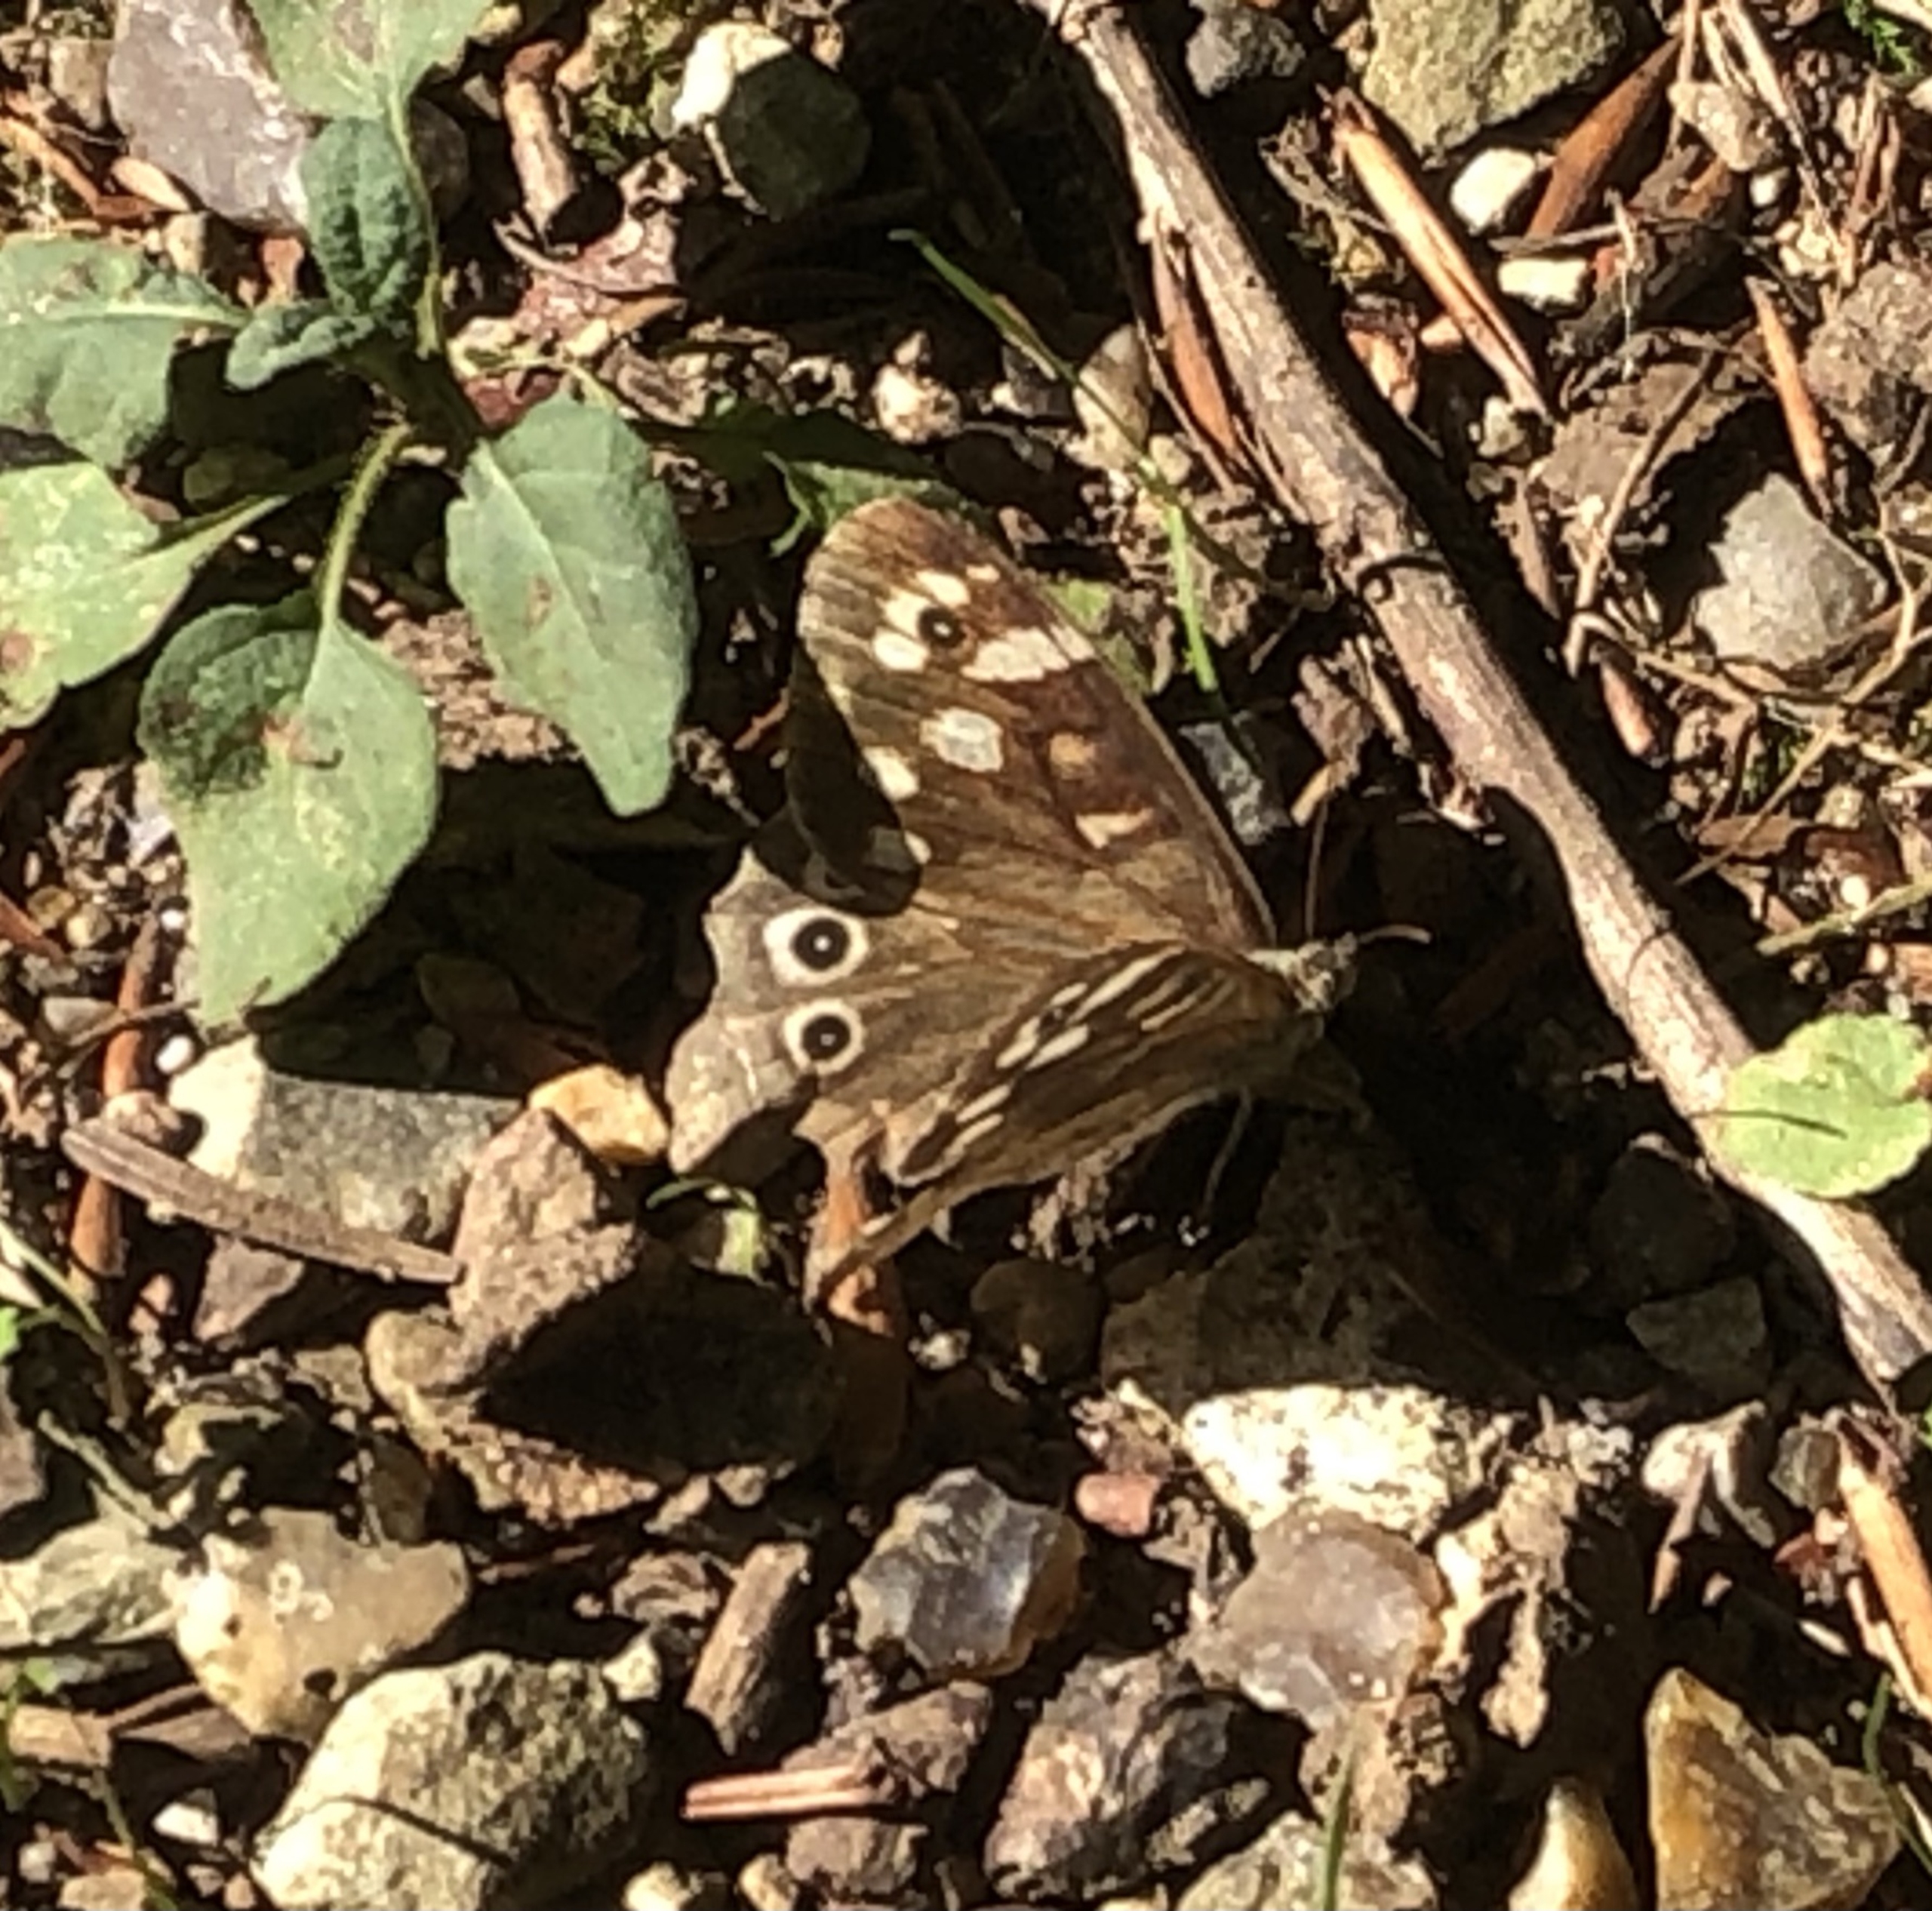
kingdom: Animalia
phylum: Arthropoda
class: Insecta
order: Lepidoptera
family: Nymphalidae
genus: Pararge
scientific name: Pararge aegeria
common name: Skovrandøje
